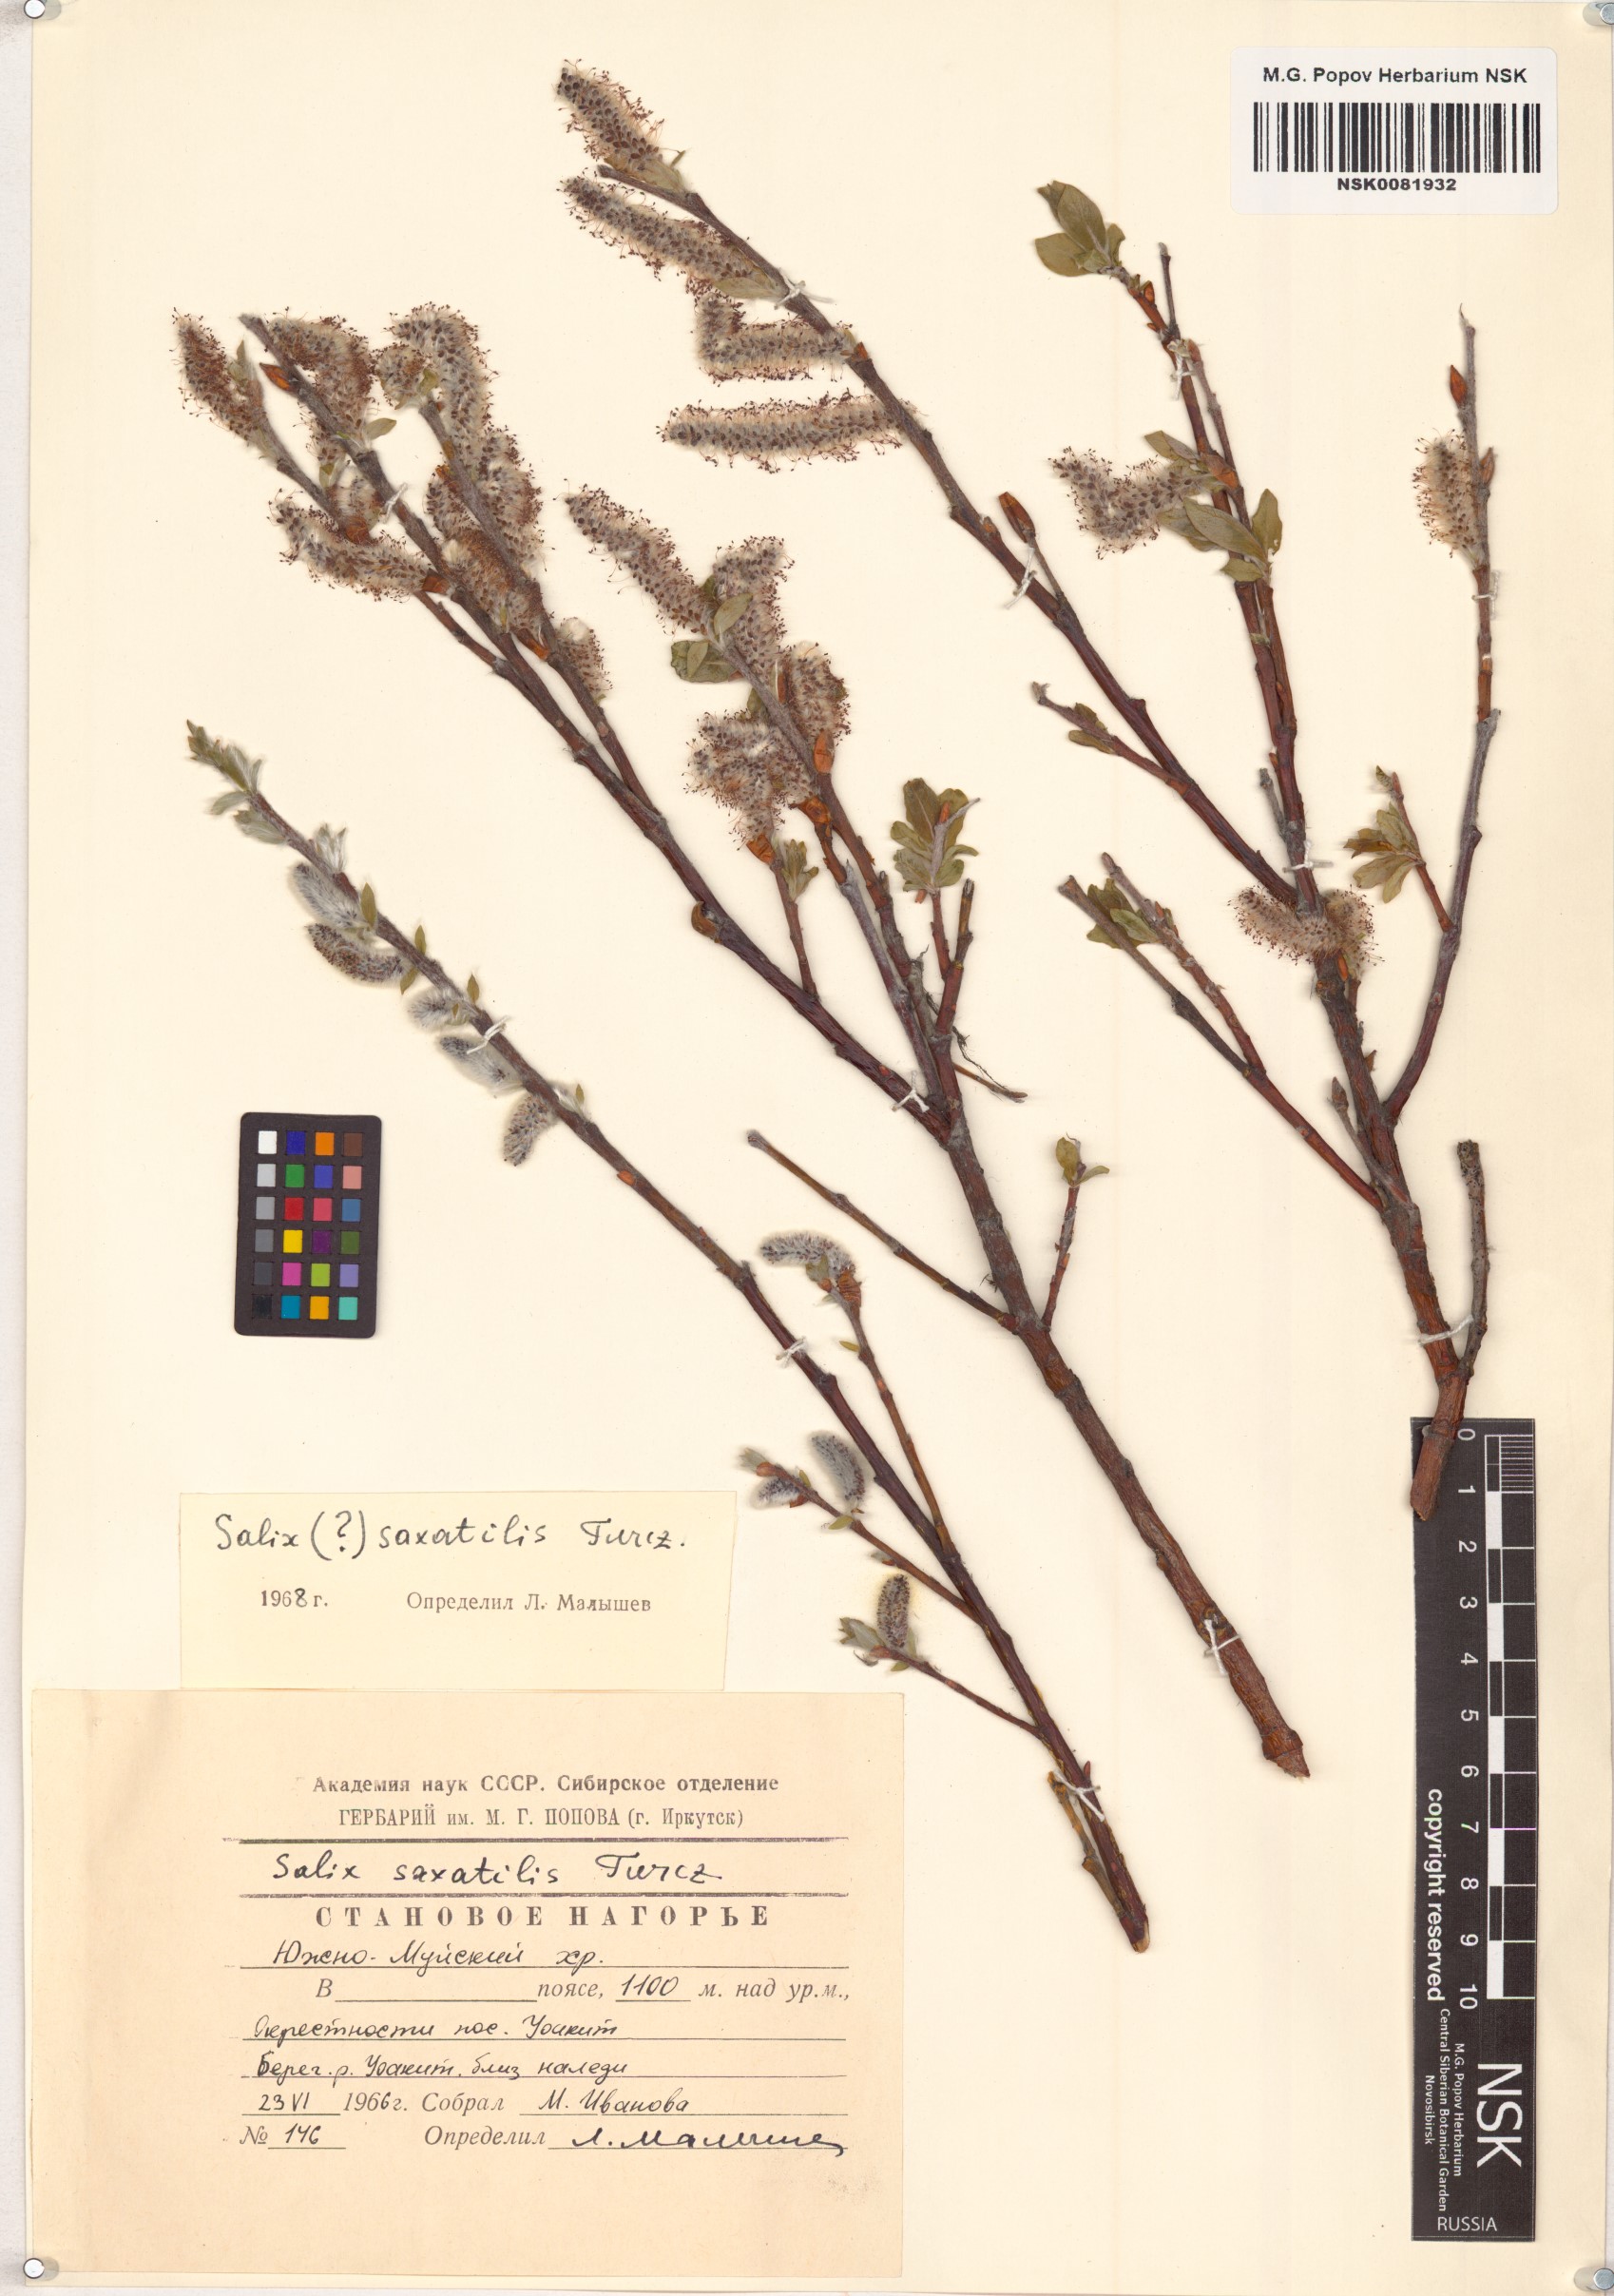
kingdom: Plantae
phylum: Tracheophyta
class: Magnoliopsida
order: Malpighiales
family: Salicaceae
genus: Salix
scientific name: Salix saxatilis
